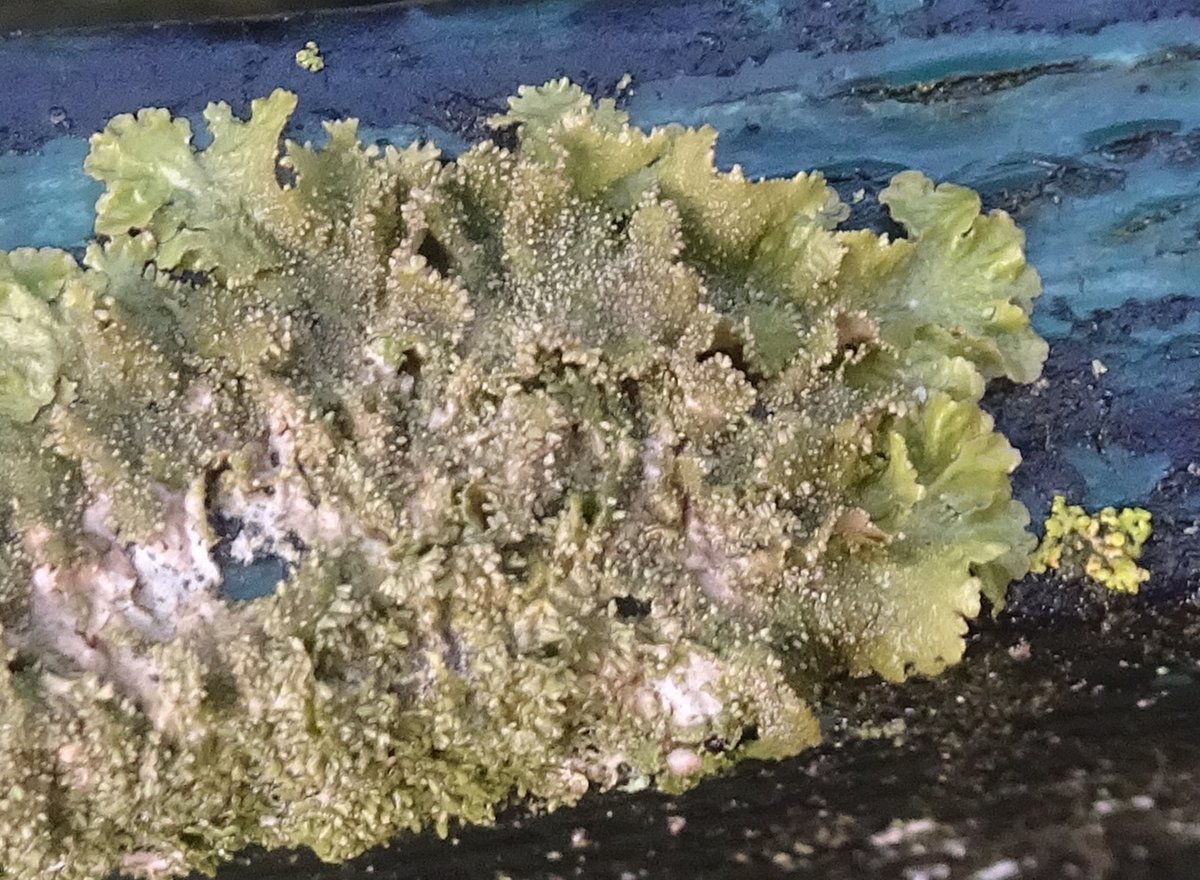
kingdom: Fungi
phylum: Ascomycota
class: Lecanoromycetes
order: Lecanorales
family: Parmeliaceae
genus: Melanohalea
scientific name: Melanohalea exasperatula
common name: kølle-skållav
